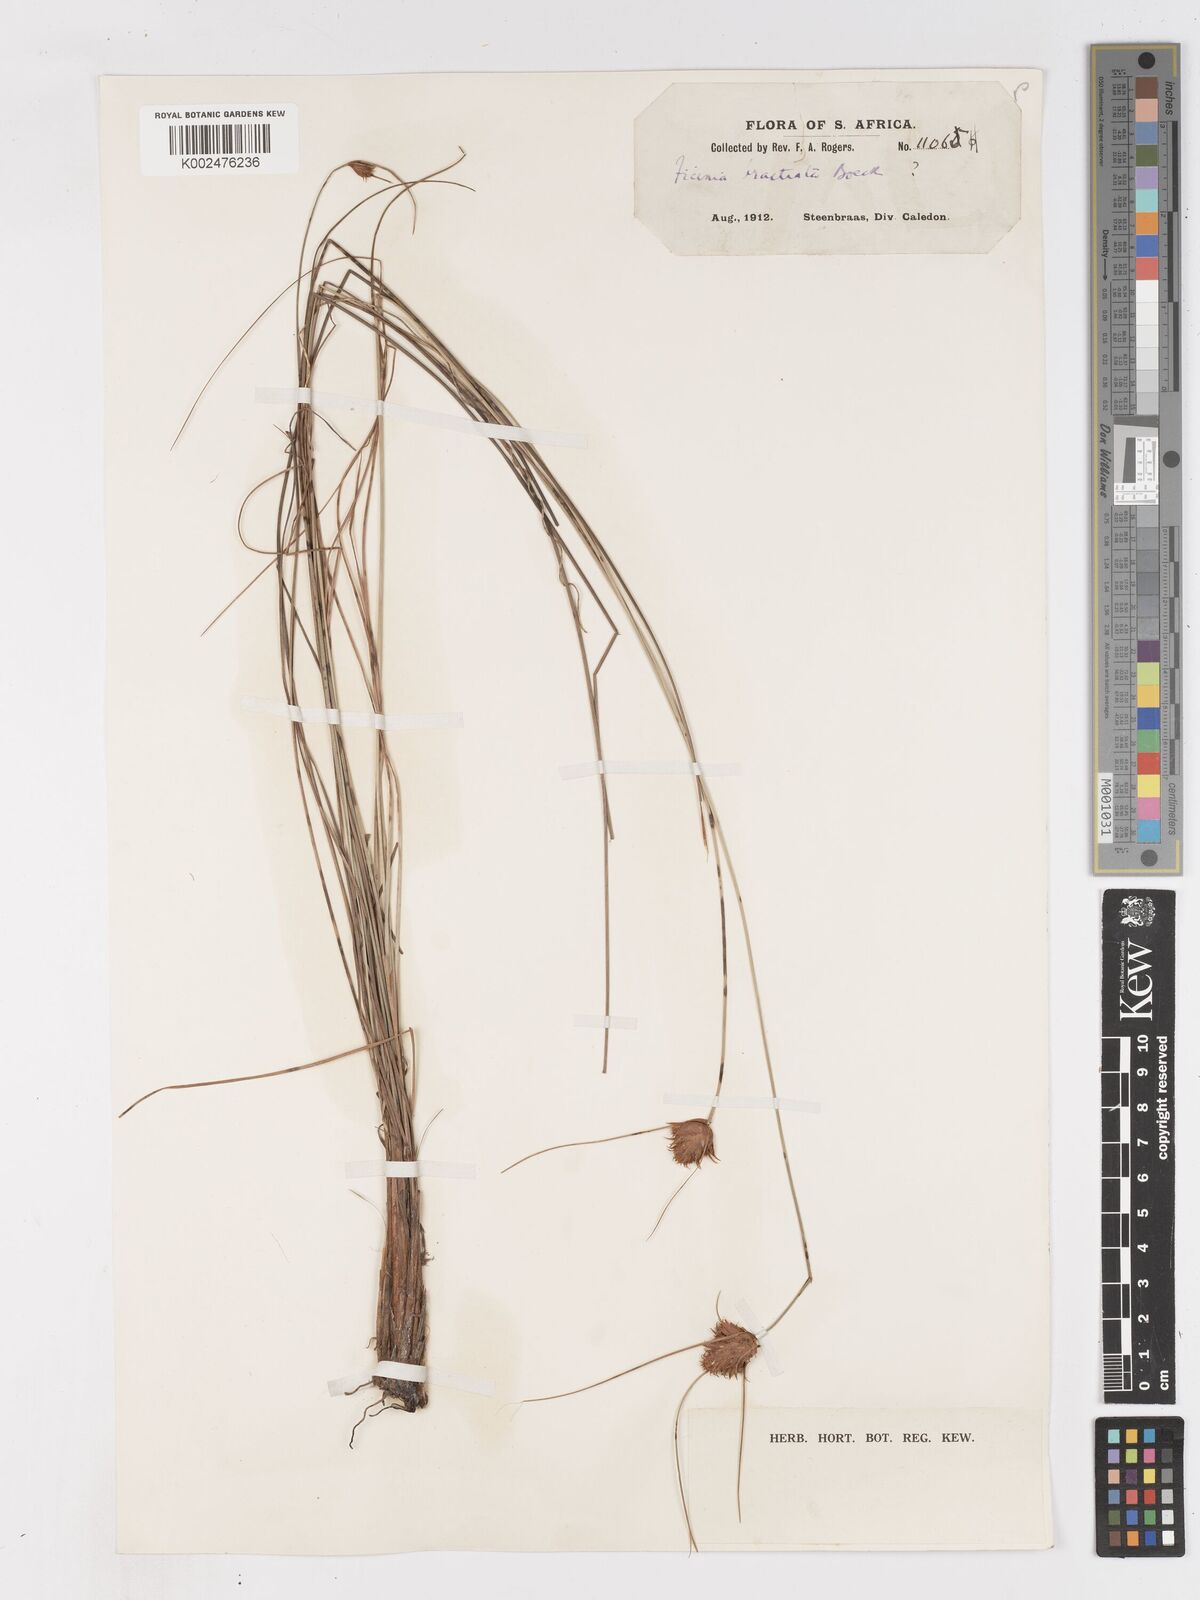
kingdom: Plantae
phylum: Tracheophyta
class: Liliopsida
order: Poales
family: Cyperaceae
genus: Ficinia
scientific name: Ficinia nigrescens
